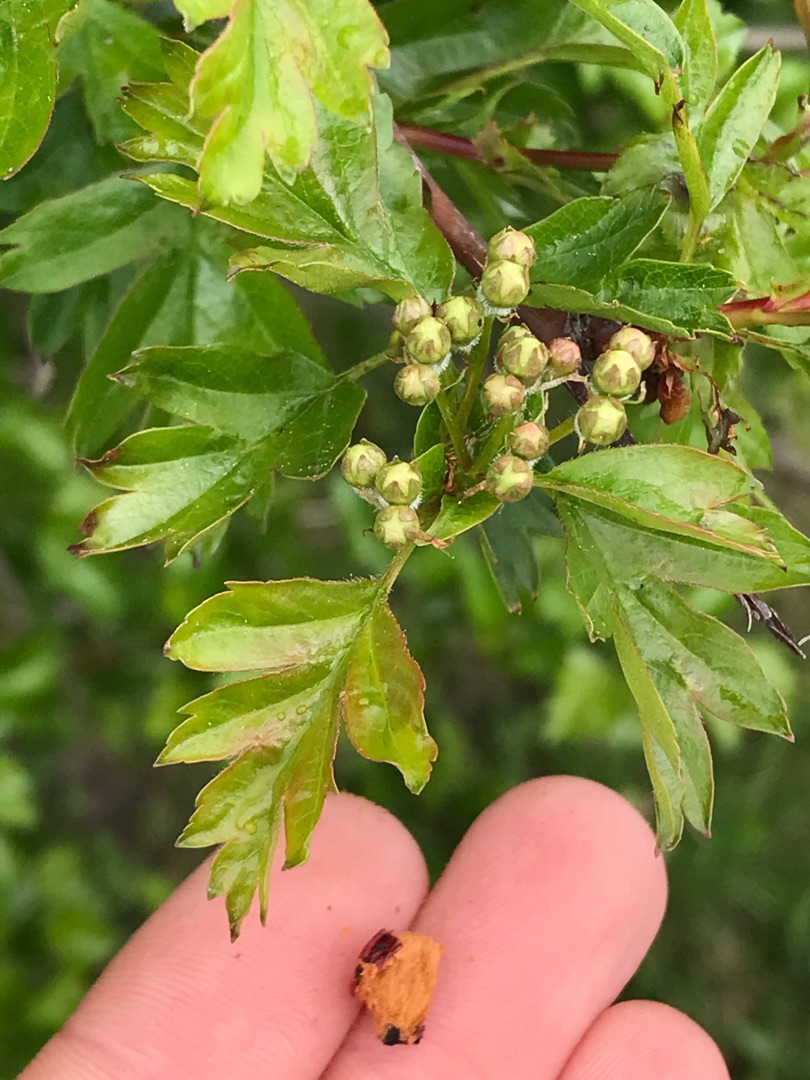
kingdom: Plantae
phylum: Tracheophyta
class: Magnoliopsida
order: Rosales
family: Rosaceae
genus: Crataegus
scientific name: Crataegus monogyna
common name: Engriflet hvidtjørn
